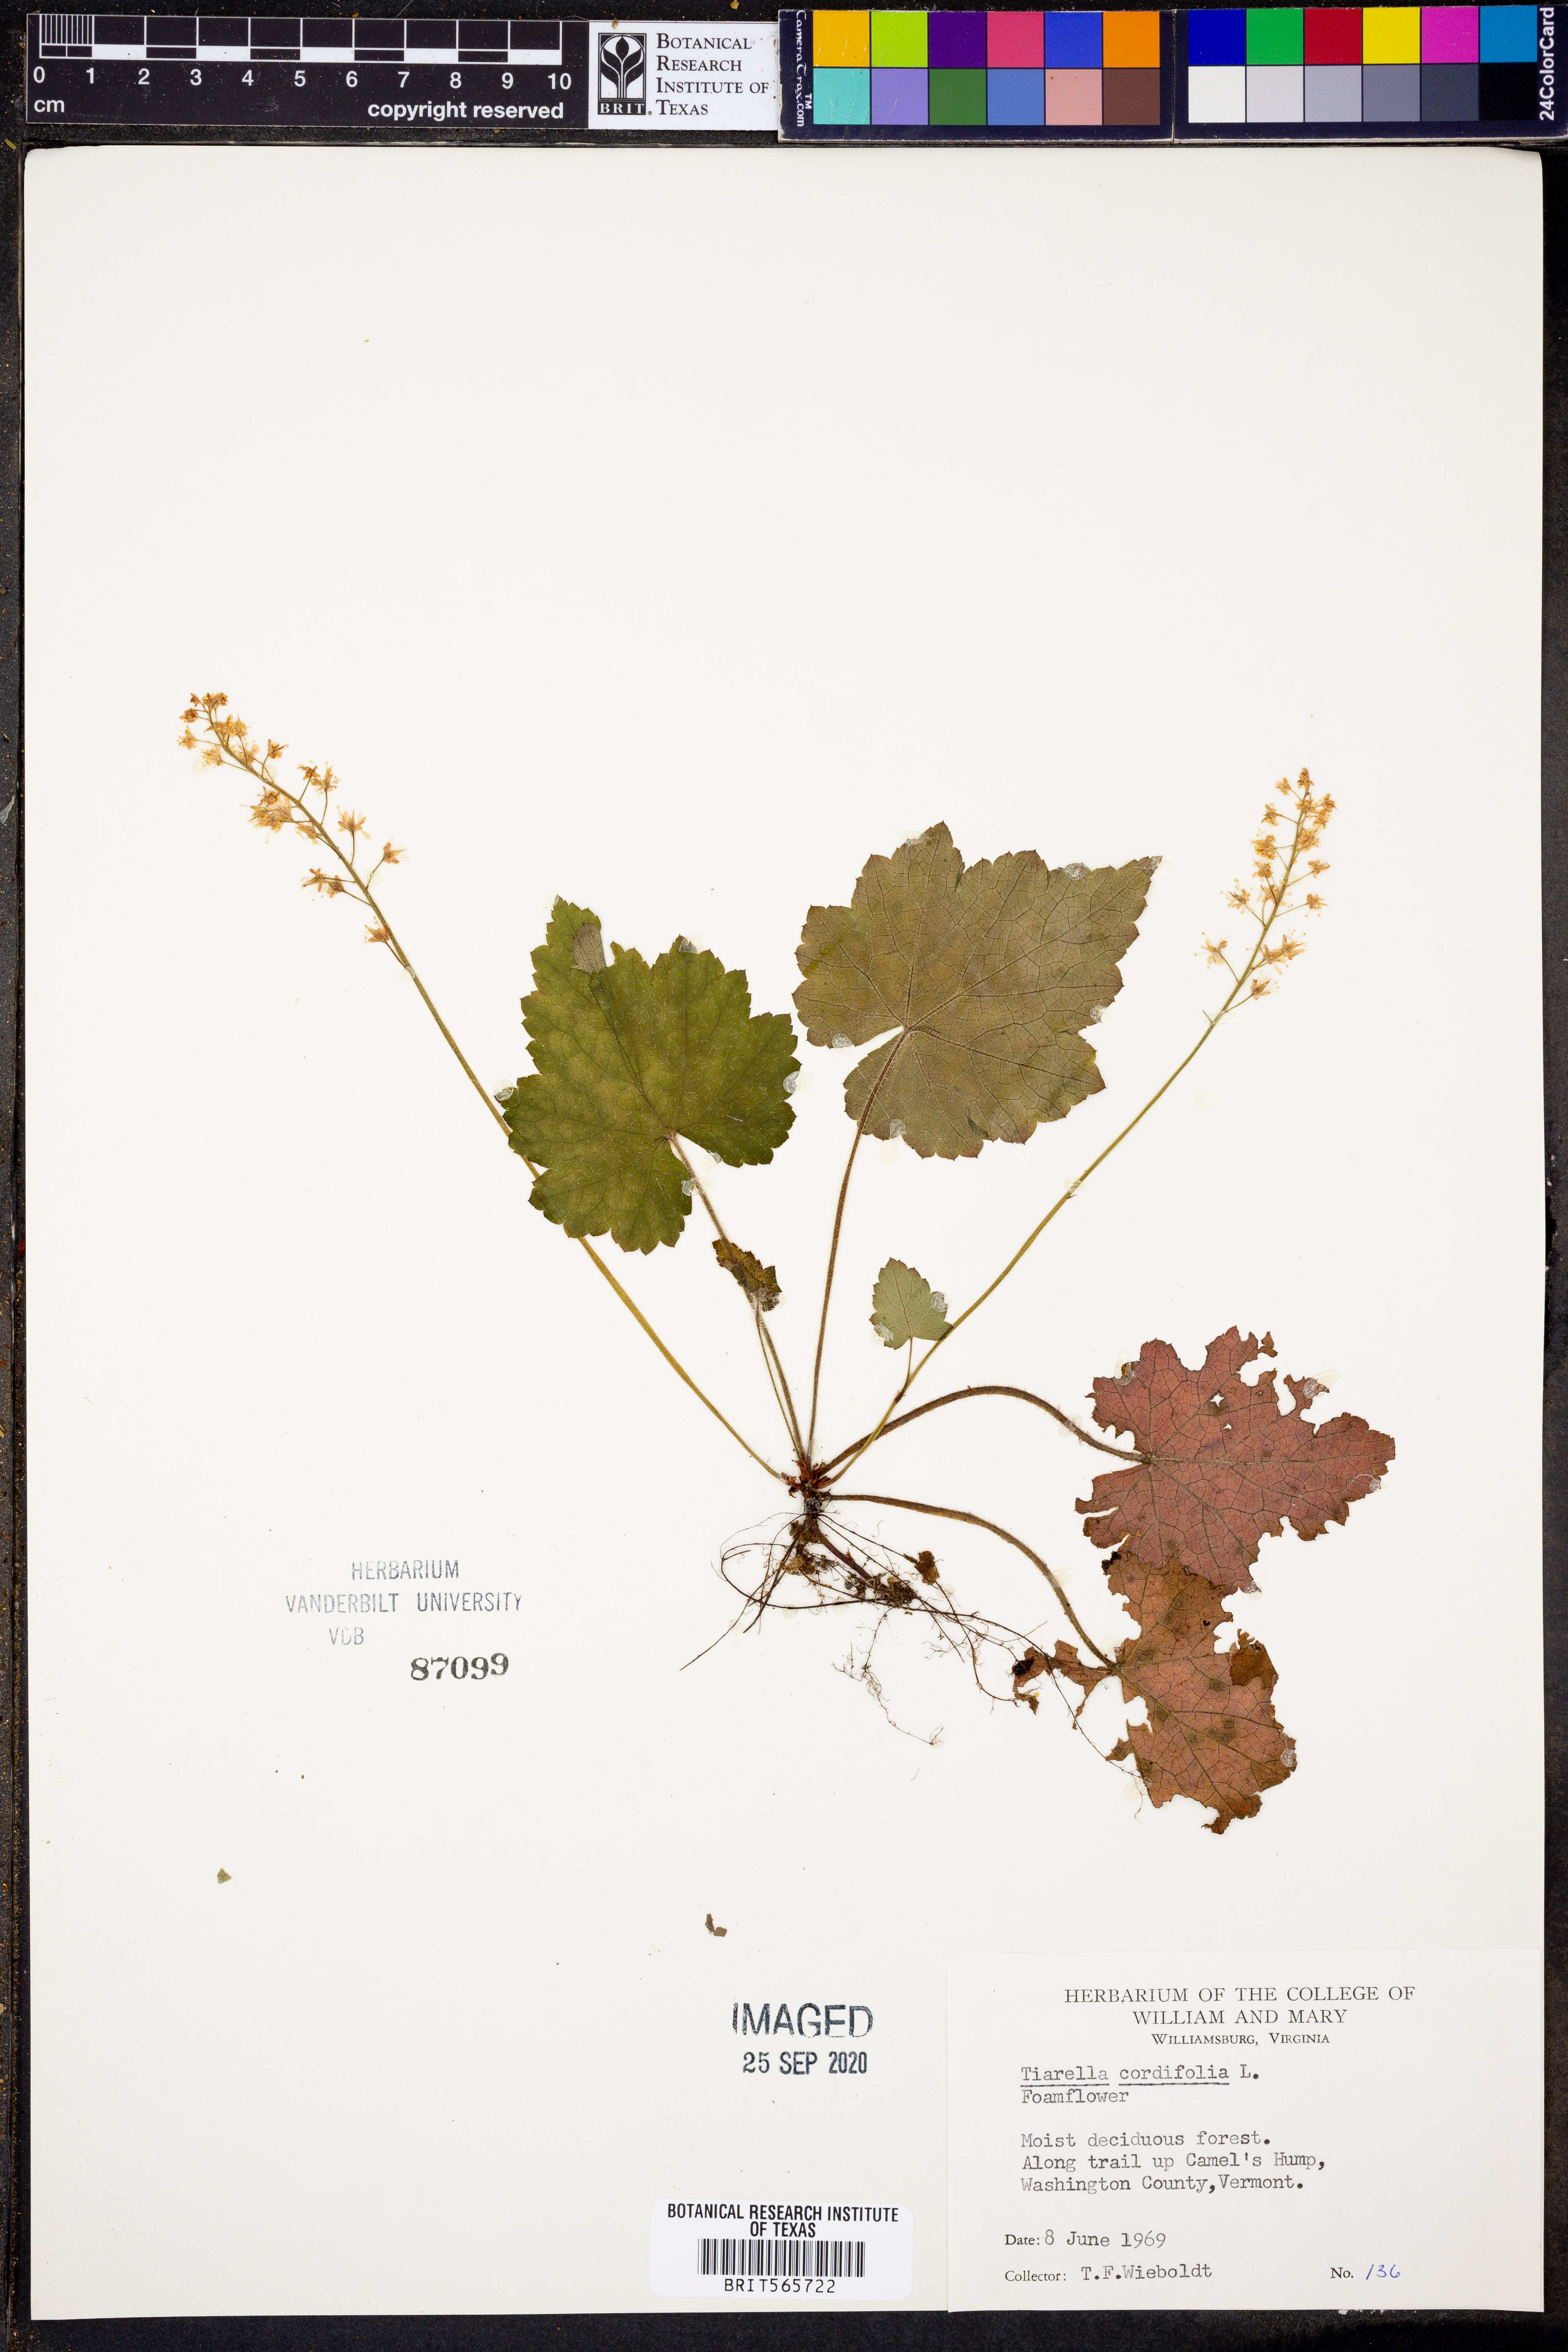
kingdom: Plantae
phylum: Tracheophyta
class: Magnoliopsida
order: Saxifragales
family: Saxifragaceae
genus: Tiarella
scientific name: Tiarella cordifolia
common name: Foamflower
